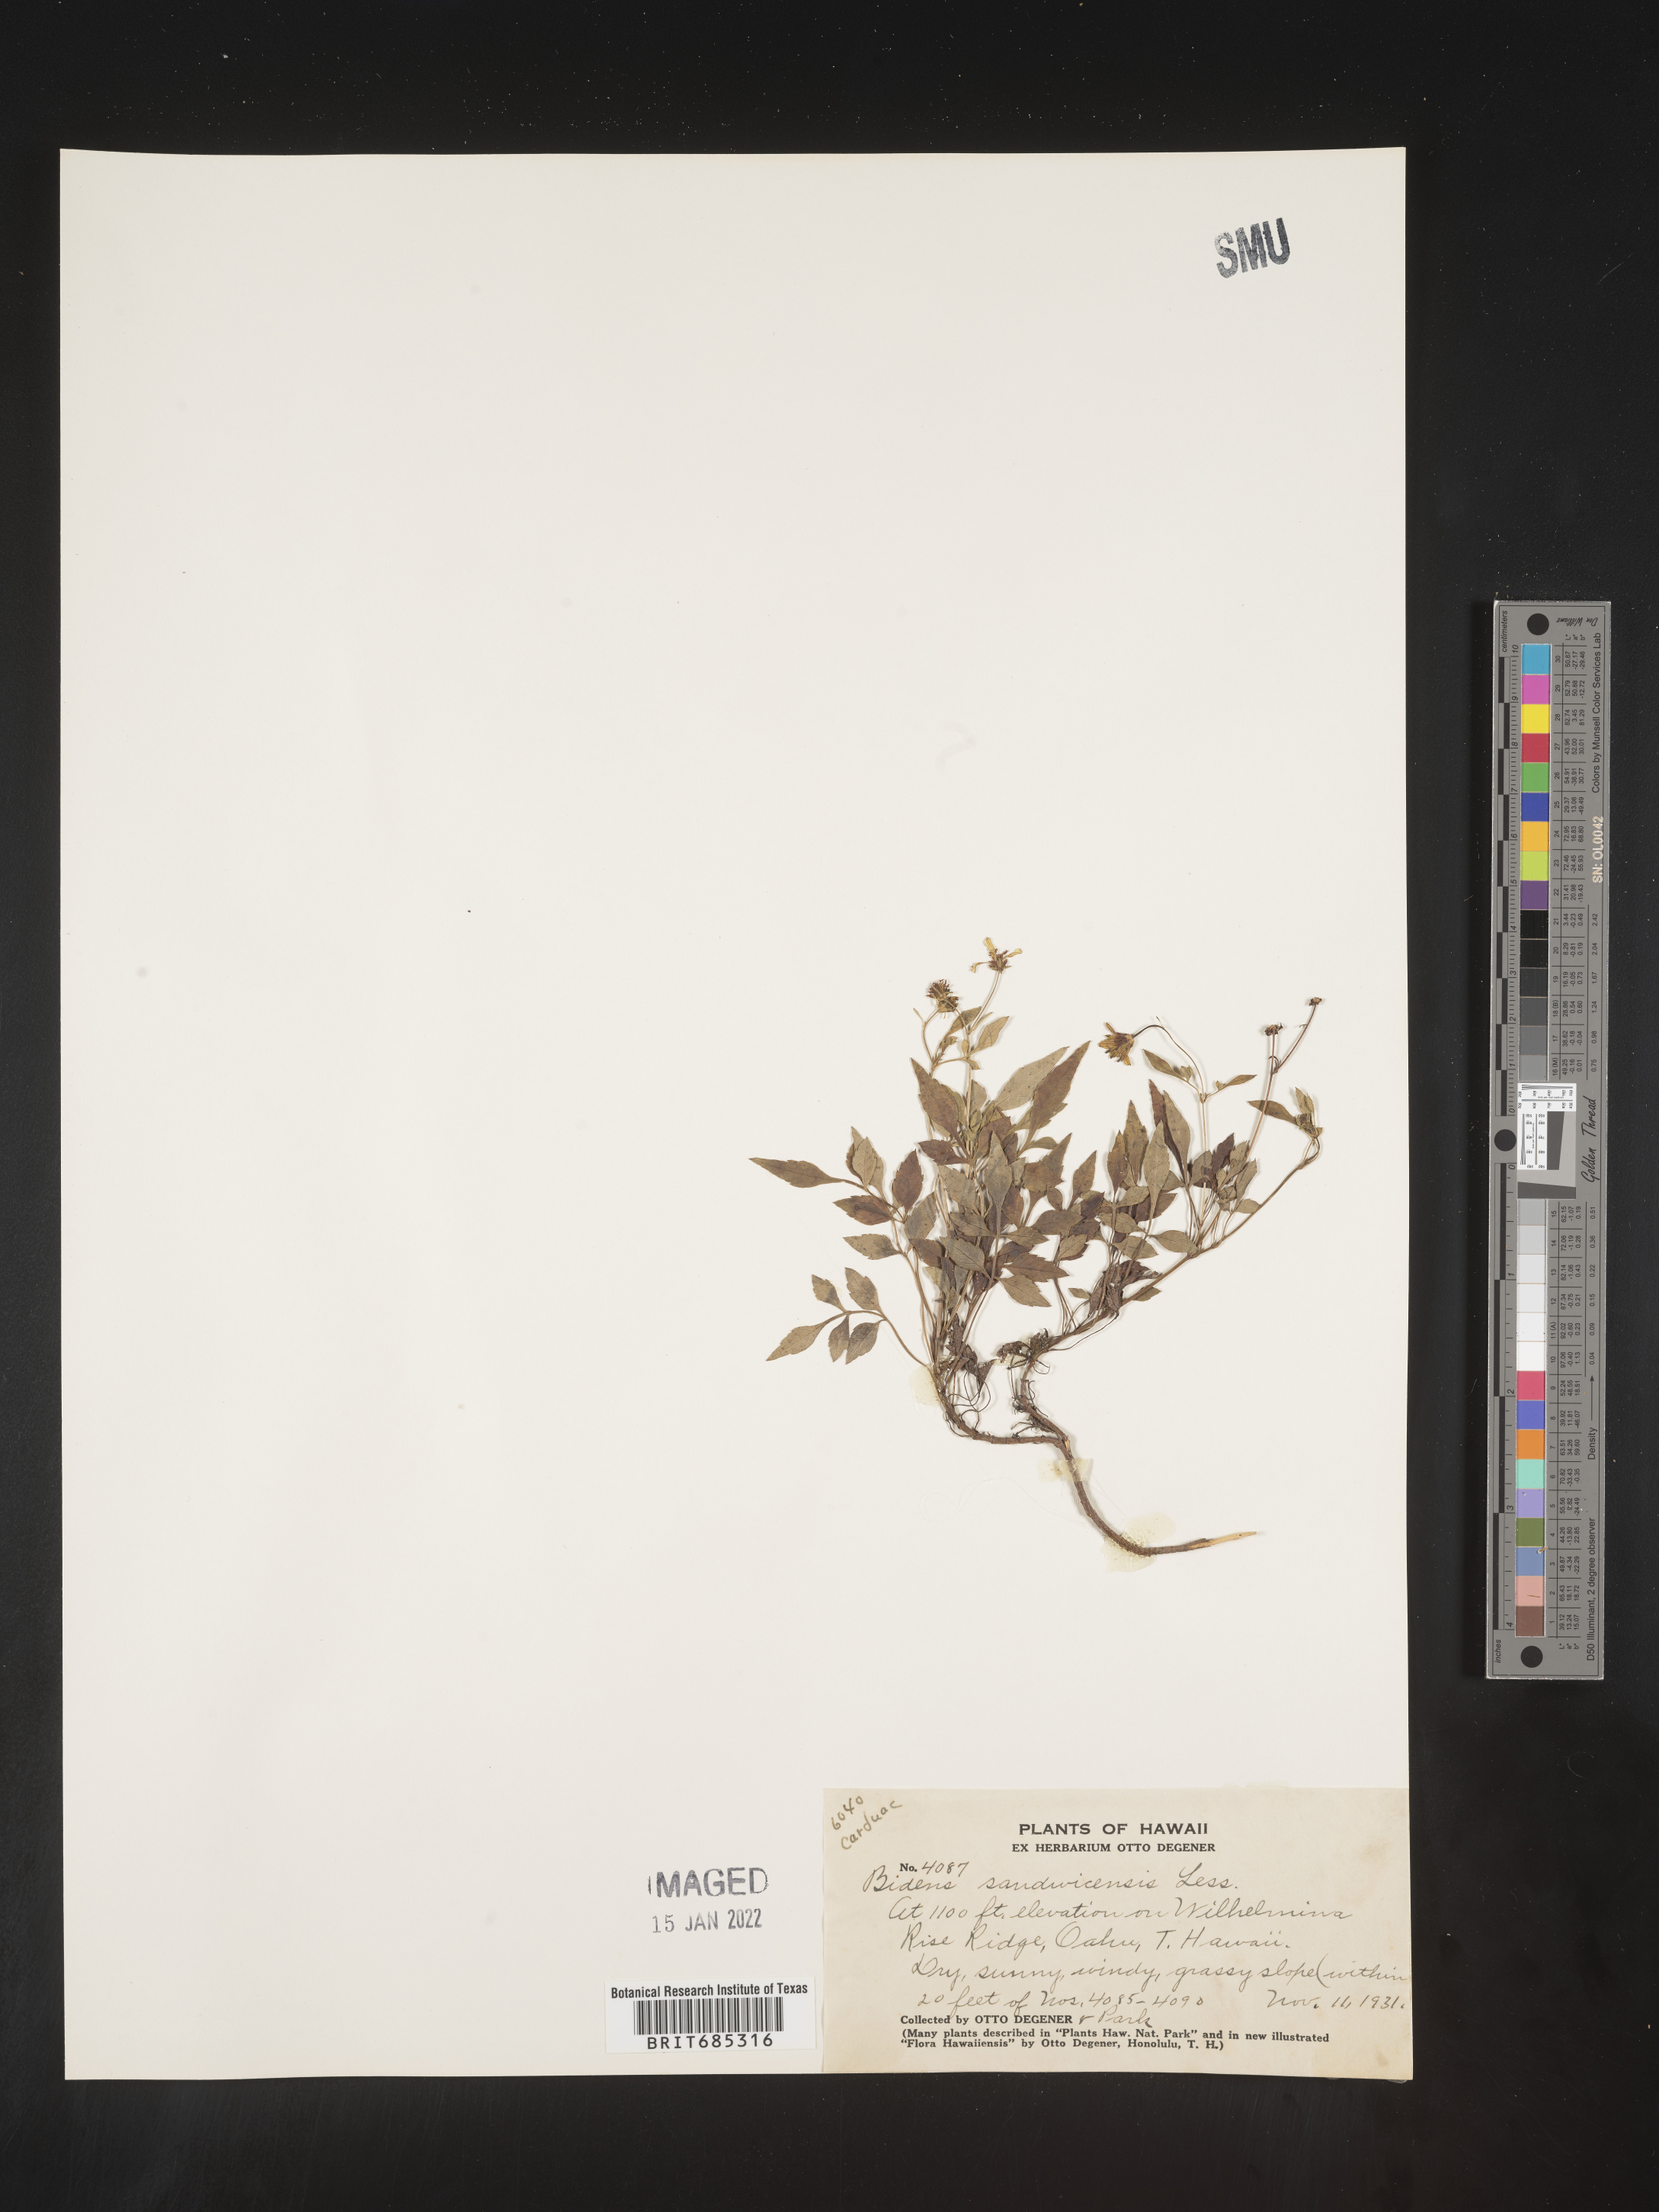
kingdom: Plantae
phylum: Tracheophyta
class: Magnoliopsida
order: Asterales
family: Asteraceae
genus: Bidens
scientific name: Bidens
